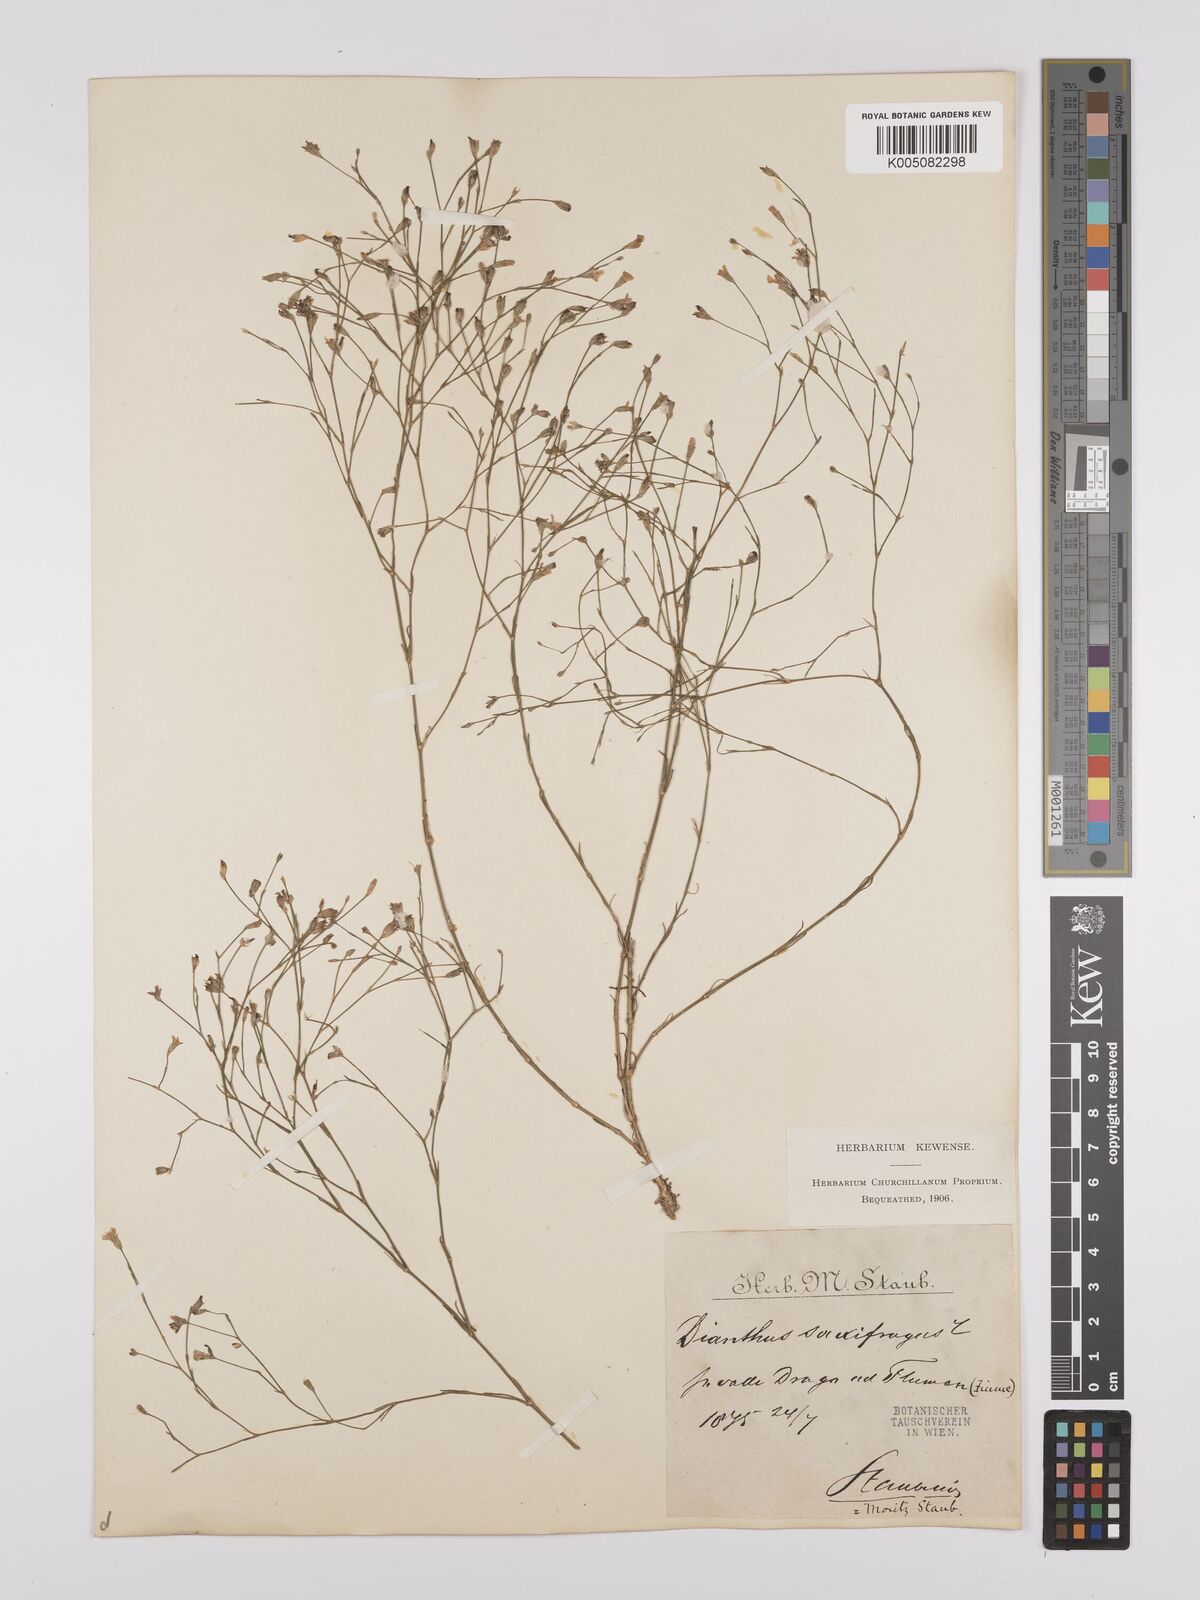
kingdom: Plantae
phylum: Tracheophyta
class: Magnoliopsida
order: Caryophyllales
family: Caryophyllaceae
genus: Petrorhagia
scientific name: Petrorhagia saxifraga
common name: Tunicflower
